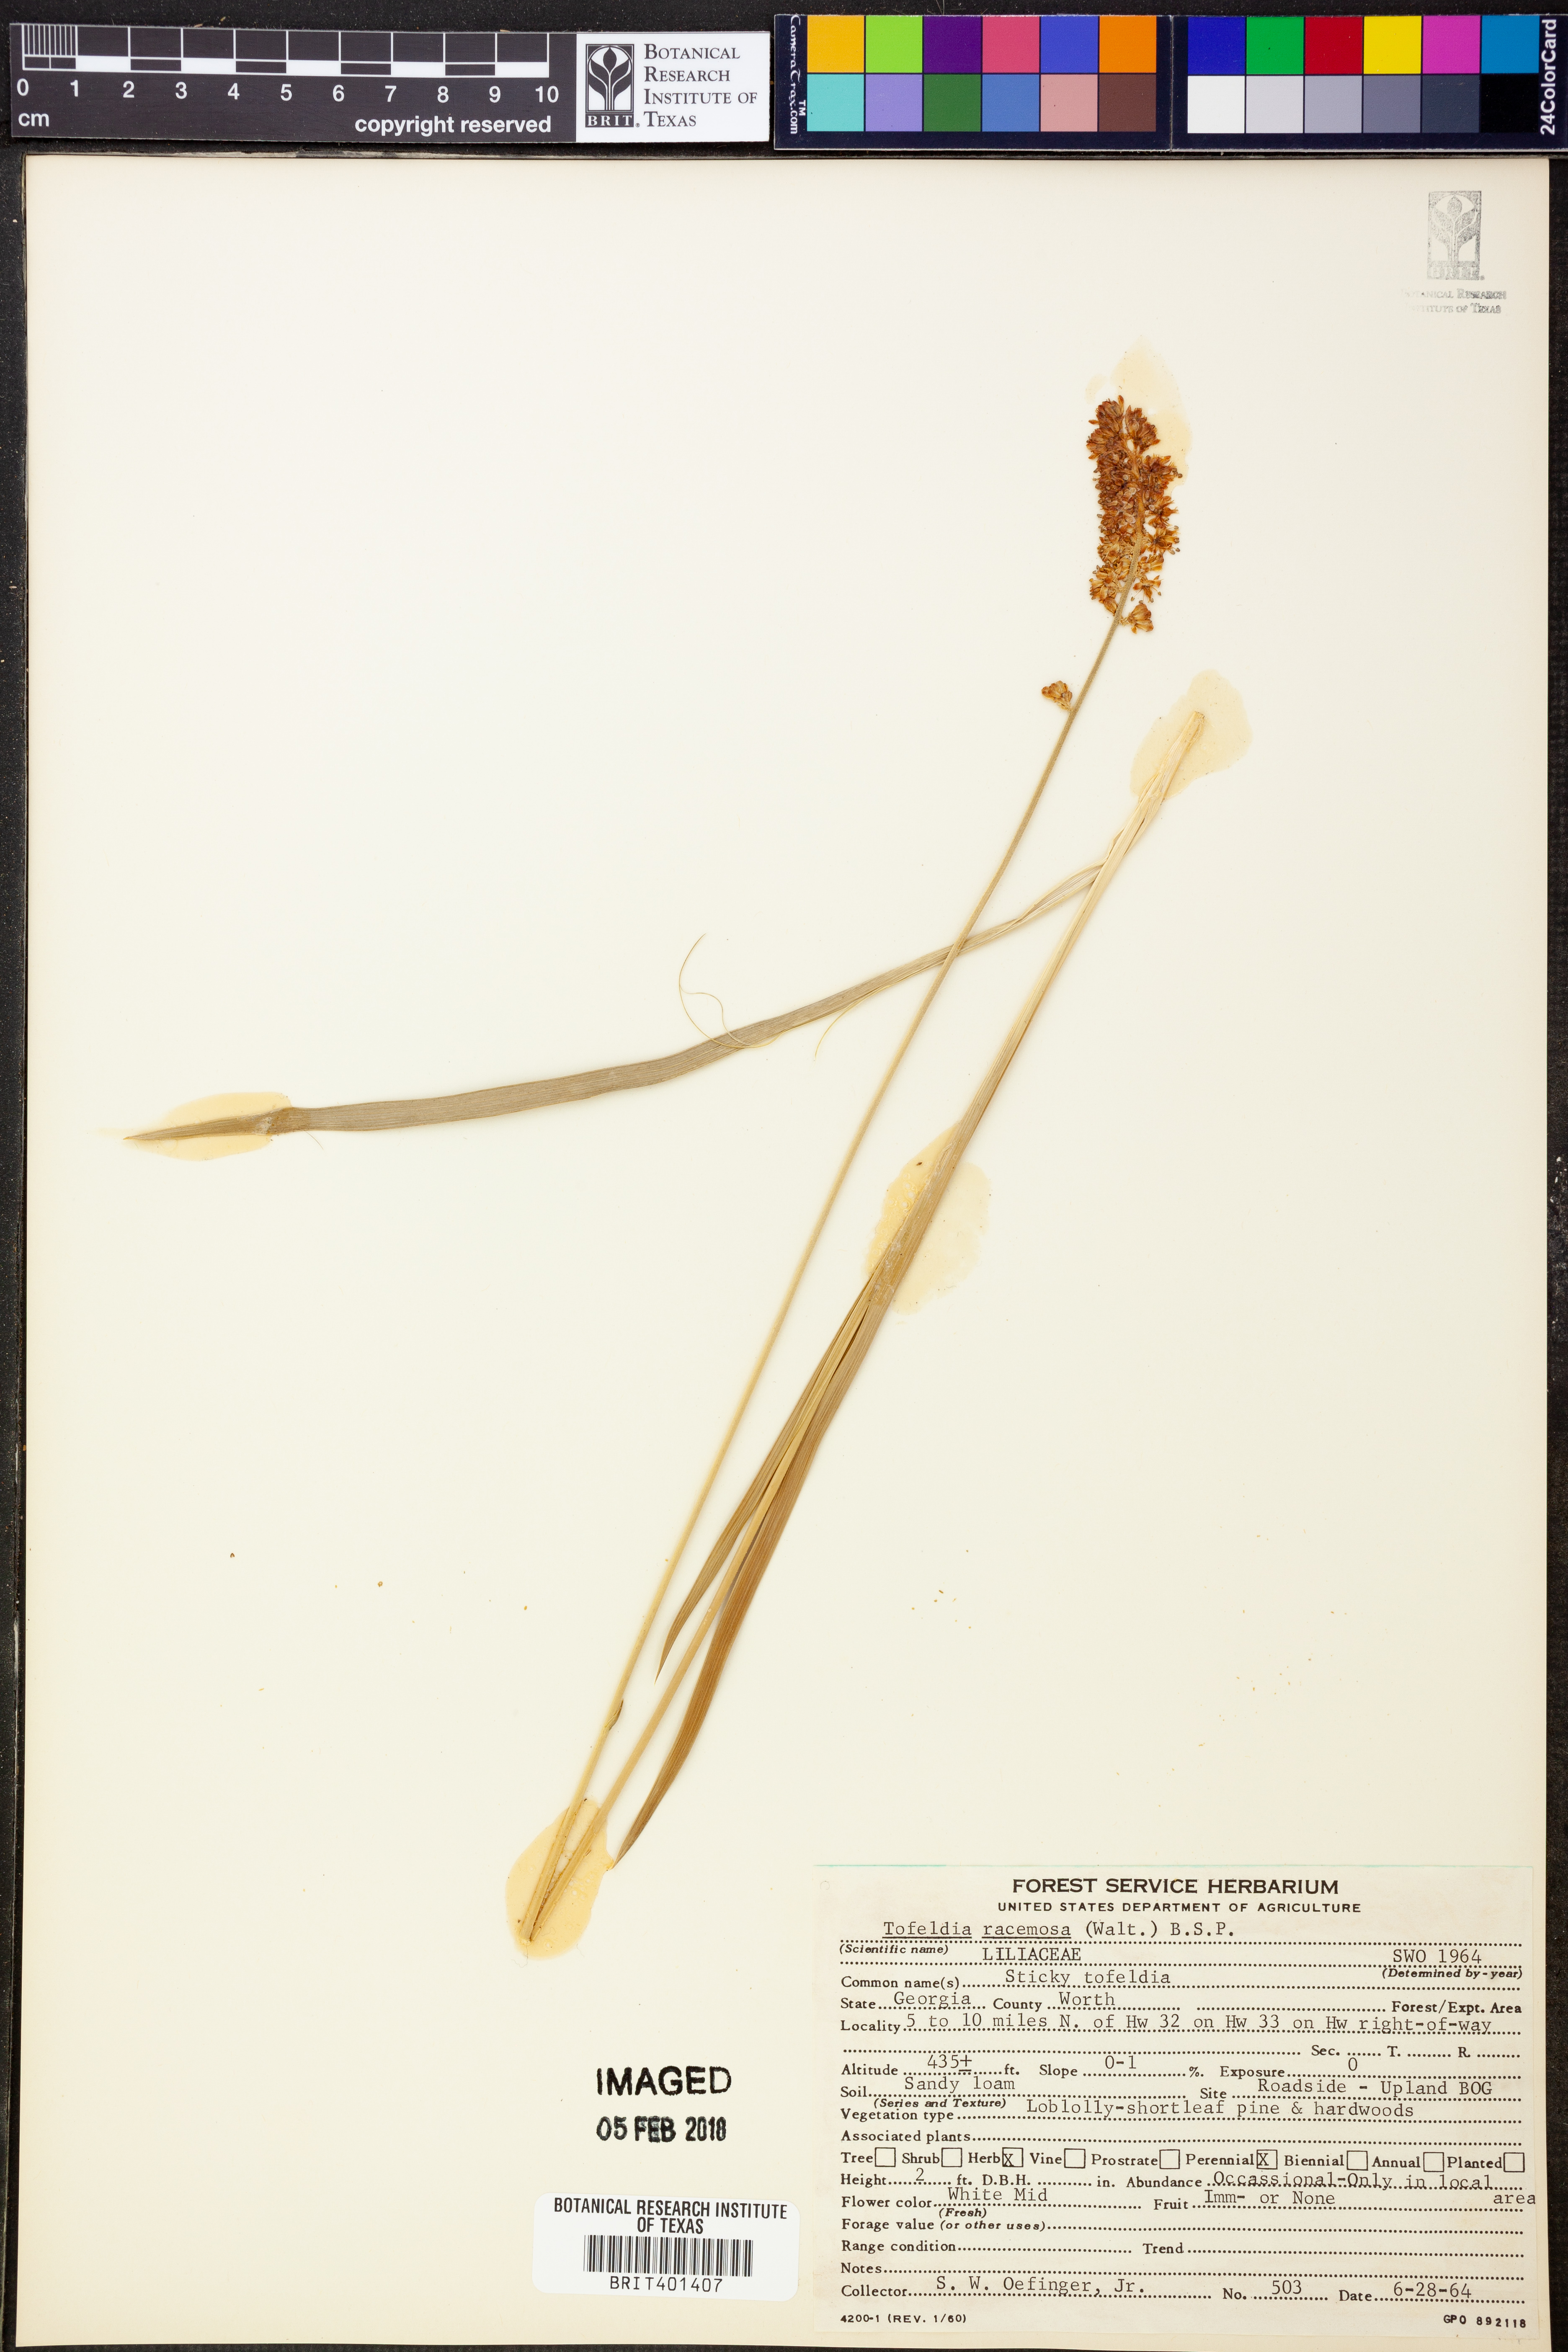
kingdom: Plantae
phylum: Tracheophyta
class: Liliopsida
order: Alismatales
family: Tofieldiaceae
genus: Triantha
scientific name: Triantha racemosa
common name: Coastal false asphodel
